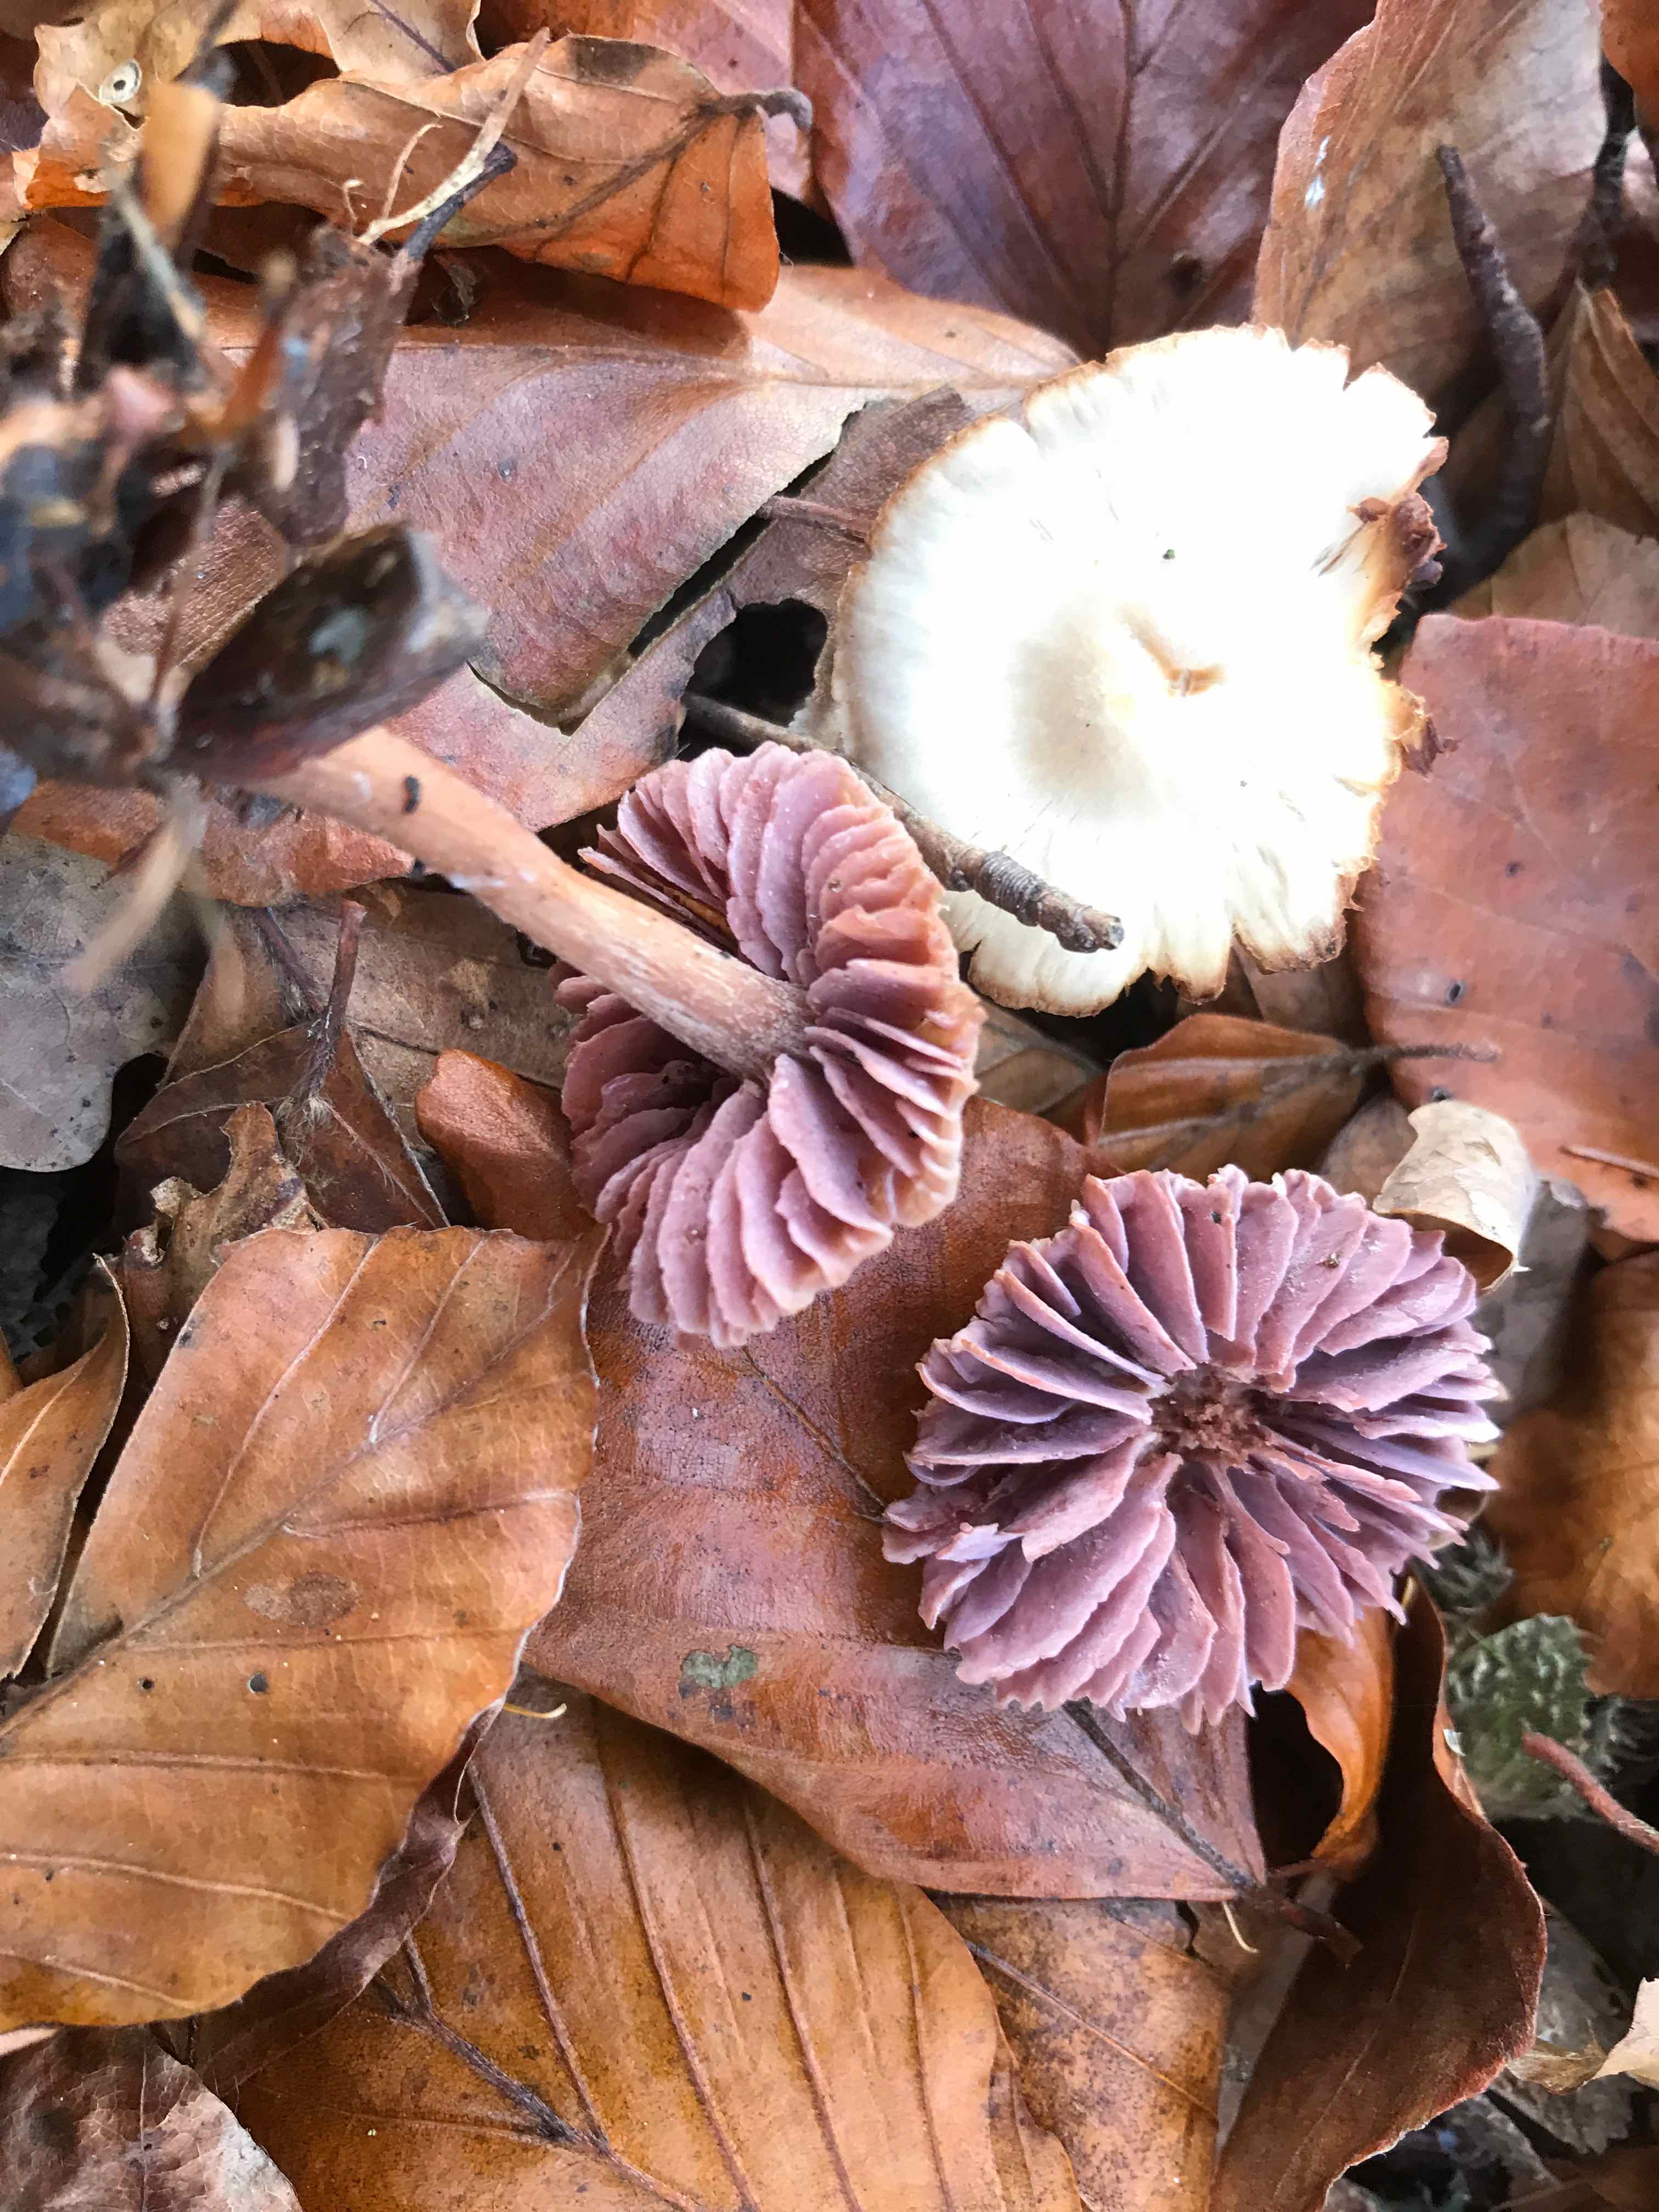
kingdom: Fungi
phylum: Basidiomycota
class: Agaricomycetes
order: Agaricales
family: Hydnangiaceae
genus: Laccaria
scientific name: Laccaria laccata
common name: rød ametysthat
